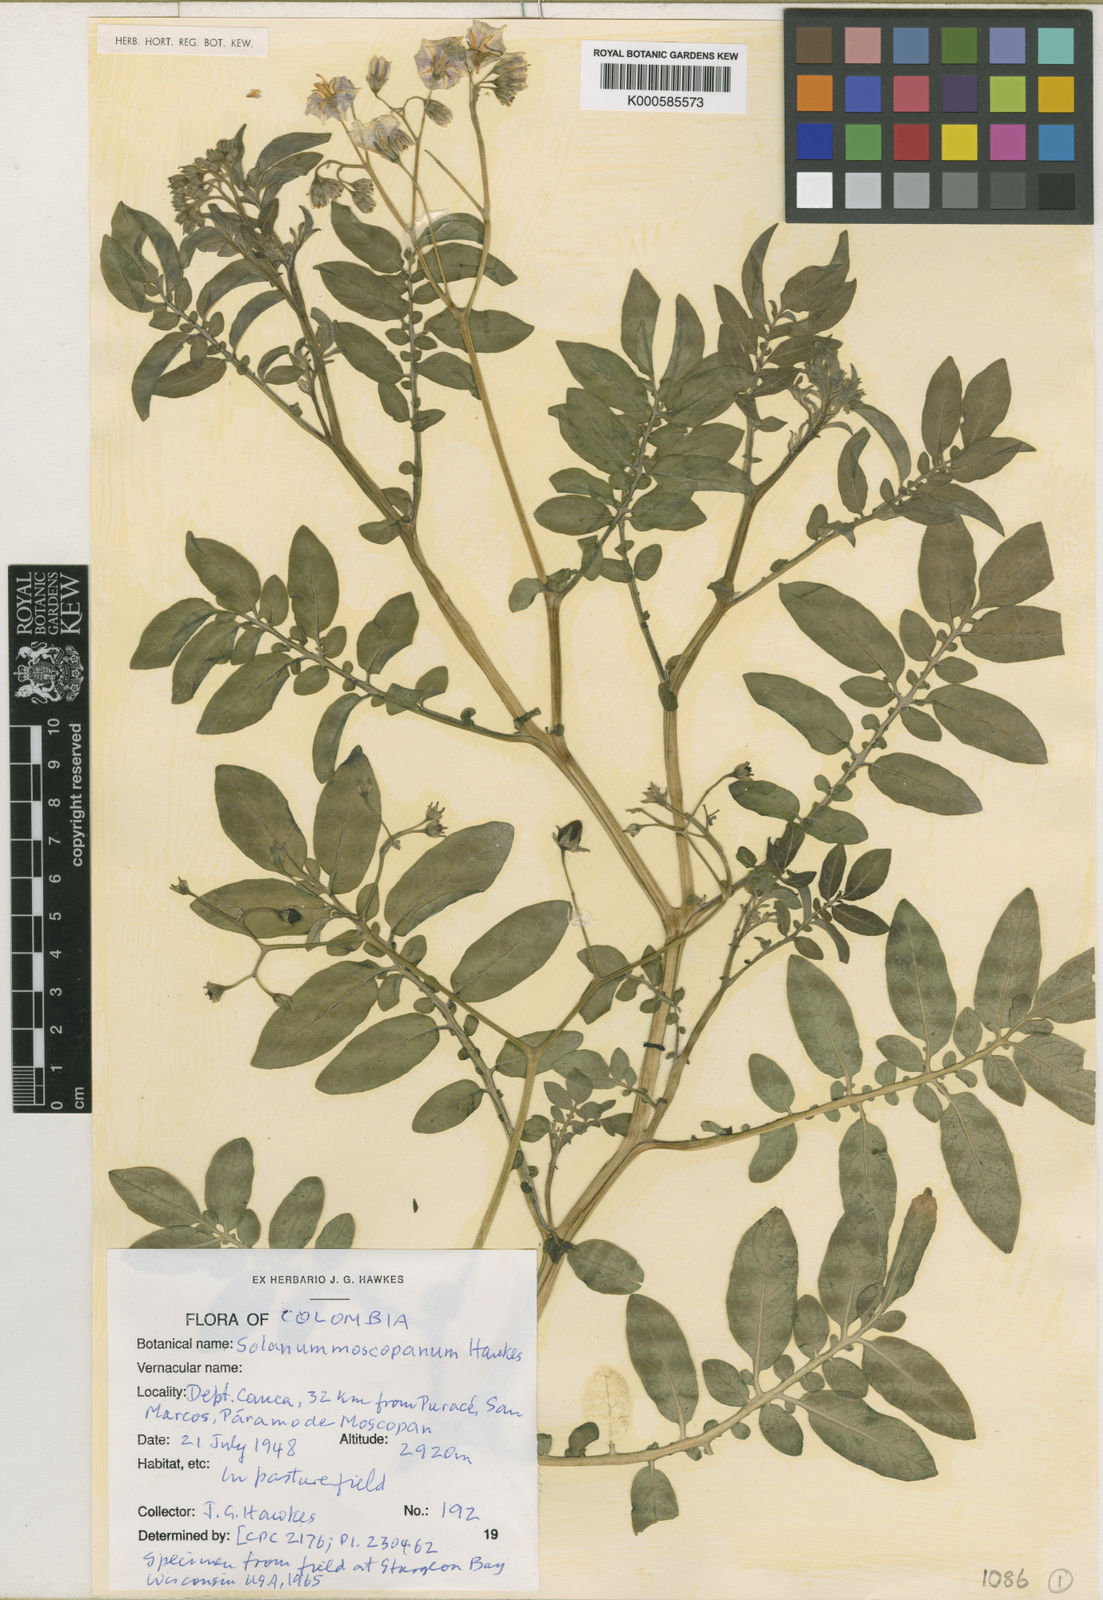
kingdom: Plantae
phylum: Tracheophyta
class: Magnoliopsida
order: Solanales
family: Solanaceae
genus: Solanum
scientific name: Solanum colombianum
